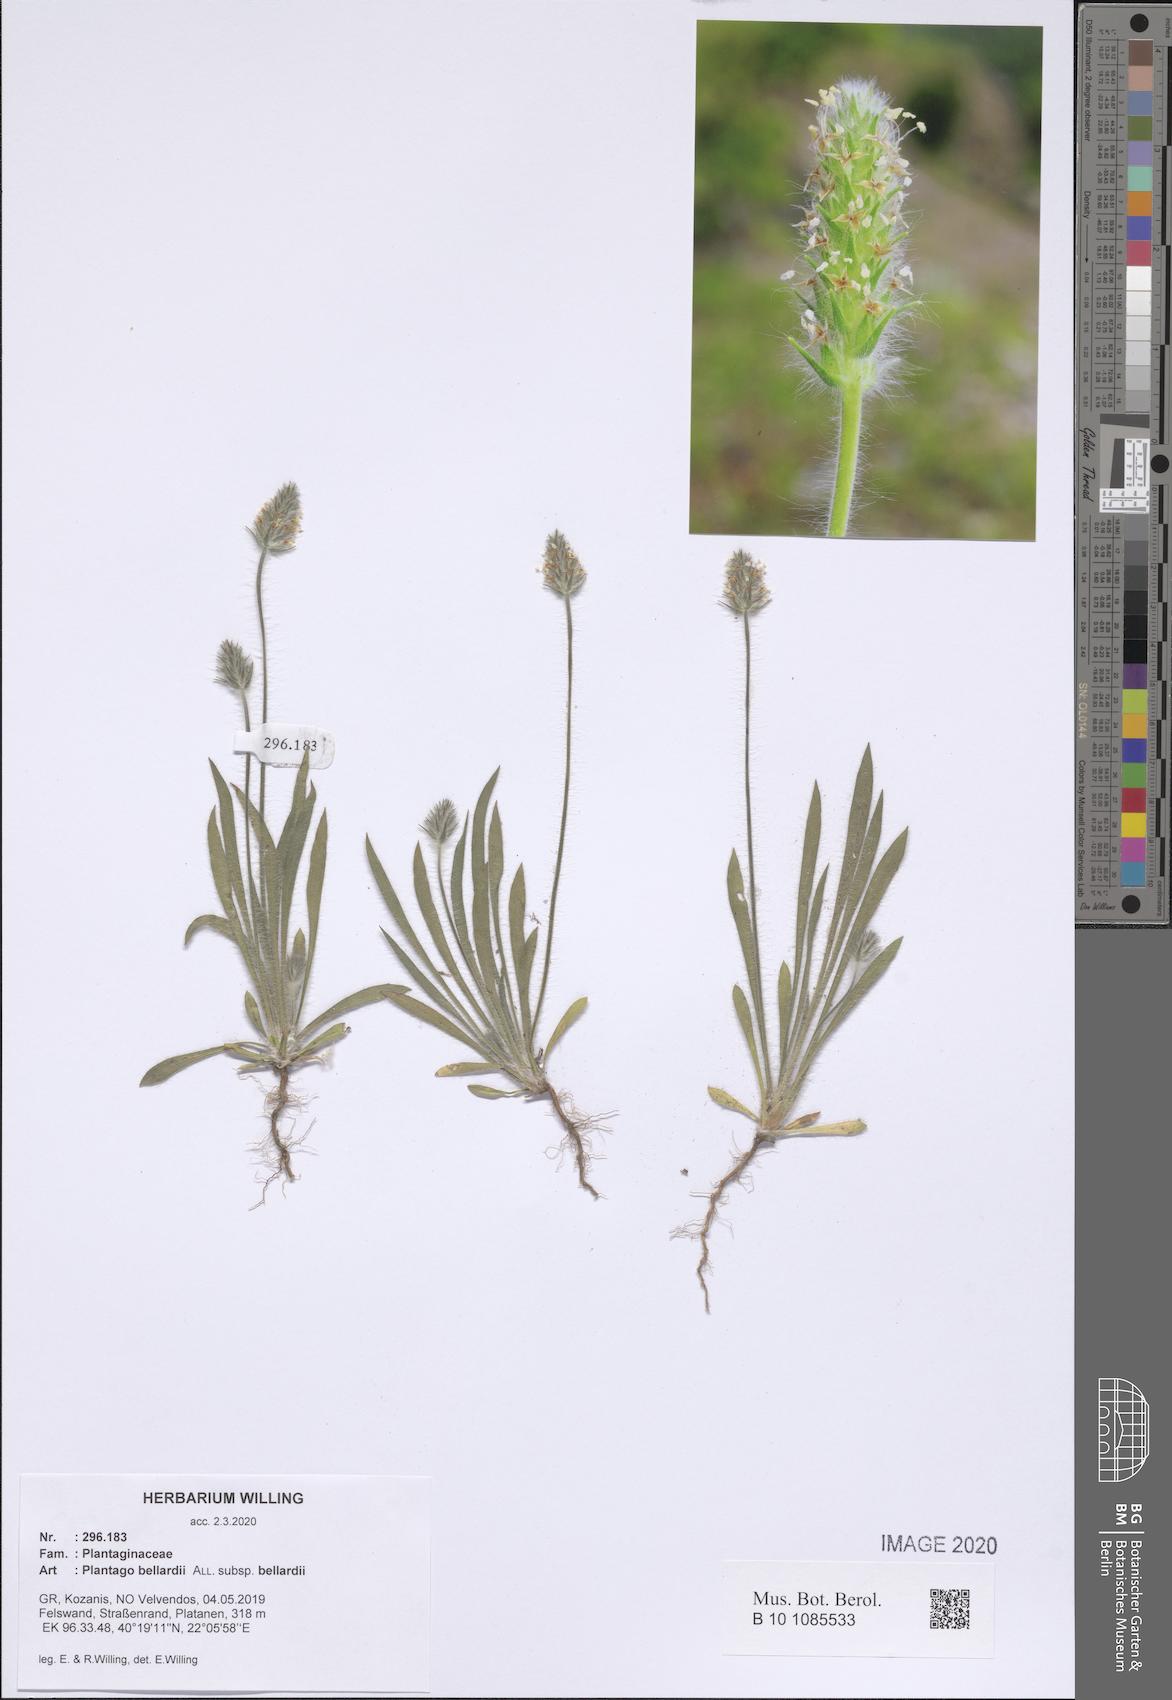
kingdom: Plantae
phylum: Tracheophyta
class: Magnoliopsida
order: Lamiales
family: Plantaginaceae
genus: Plantago
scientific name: Plantago bellardii
